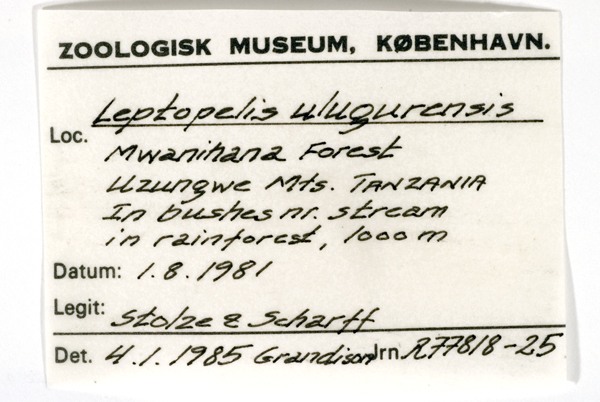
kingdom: Animalia
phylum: Chordata
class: Amphibia
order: Anura
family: Arthroleptidae
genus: Leptopelis
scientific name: Leptopelis uluguruensis
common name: Uluguru forest treefrog
